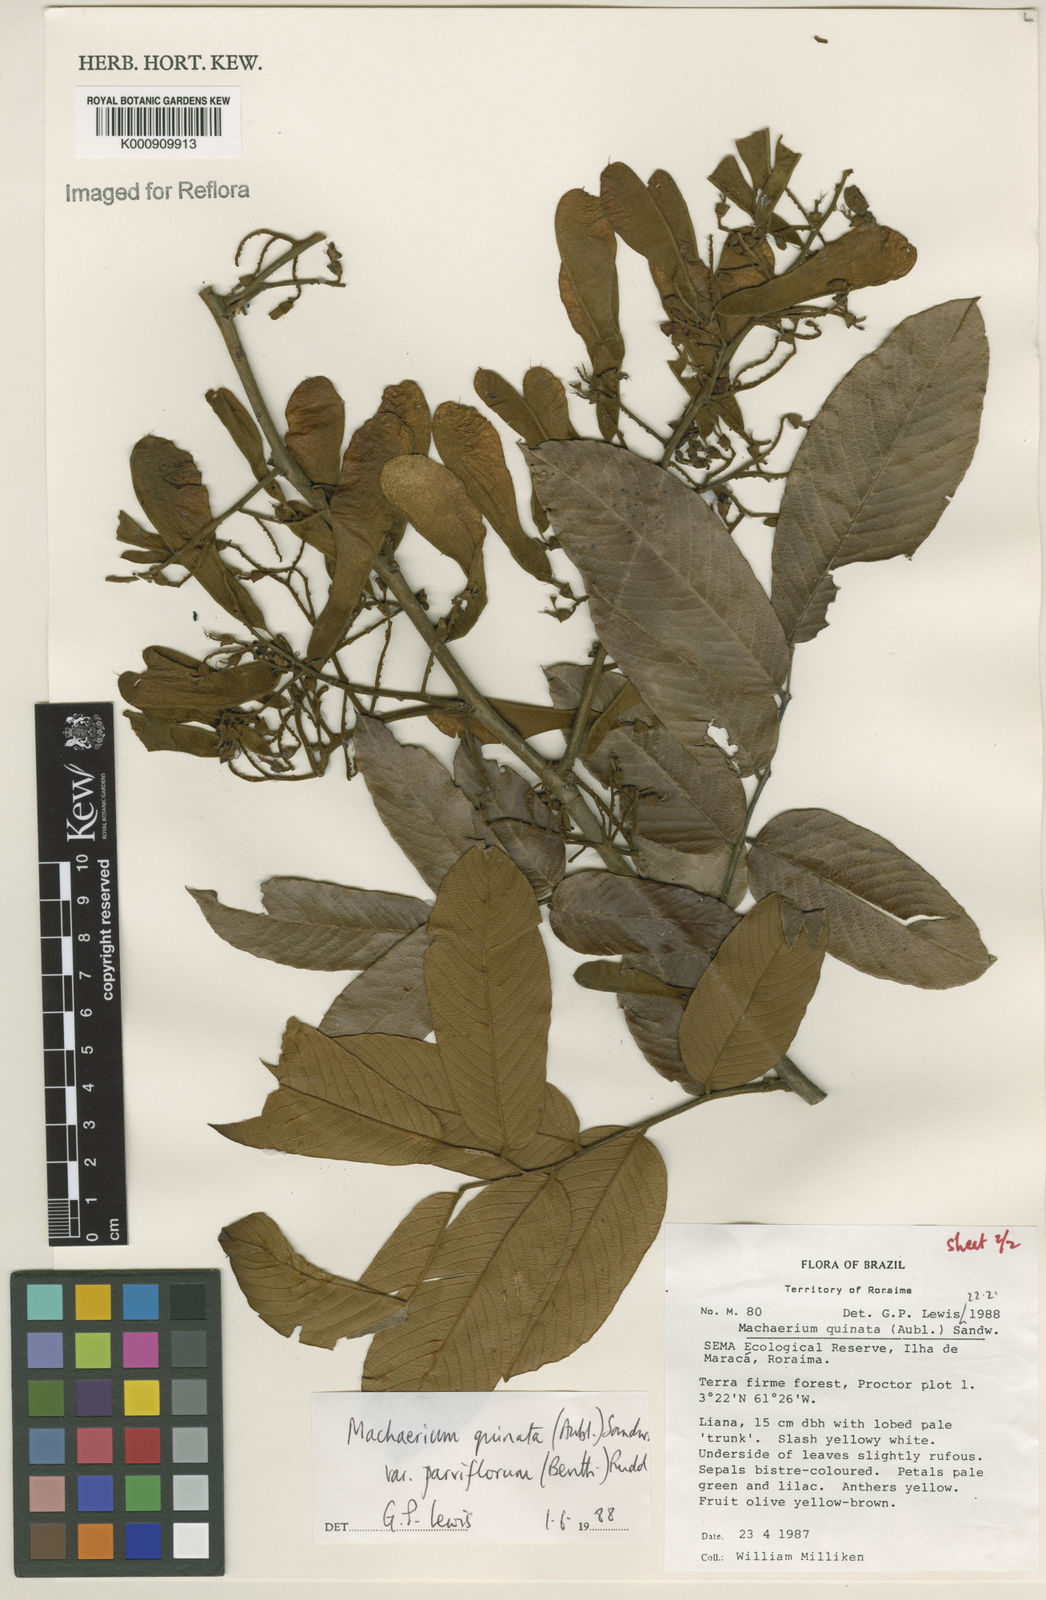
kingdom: Plantae
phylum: Tracheophyta
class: Magnoliopsida
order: Fabales
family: Fabaceae
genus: Machaerium
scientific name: Machaerium quinata
